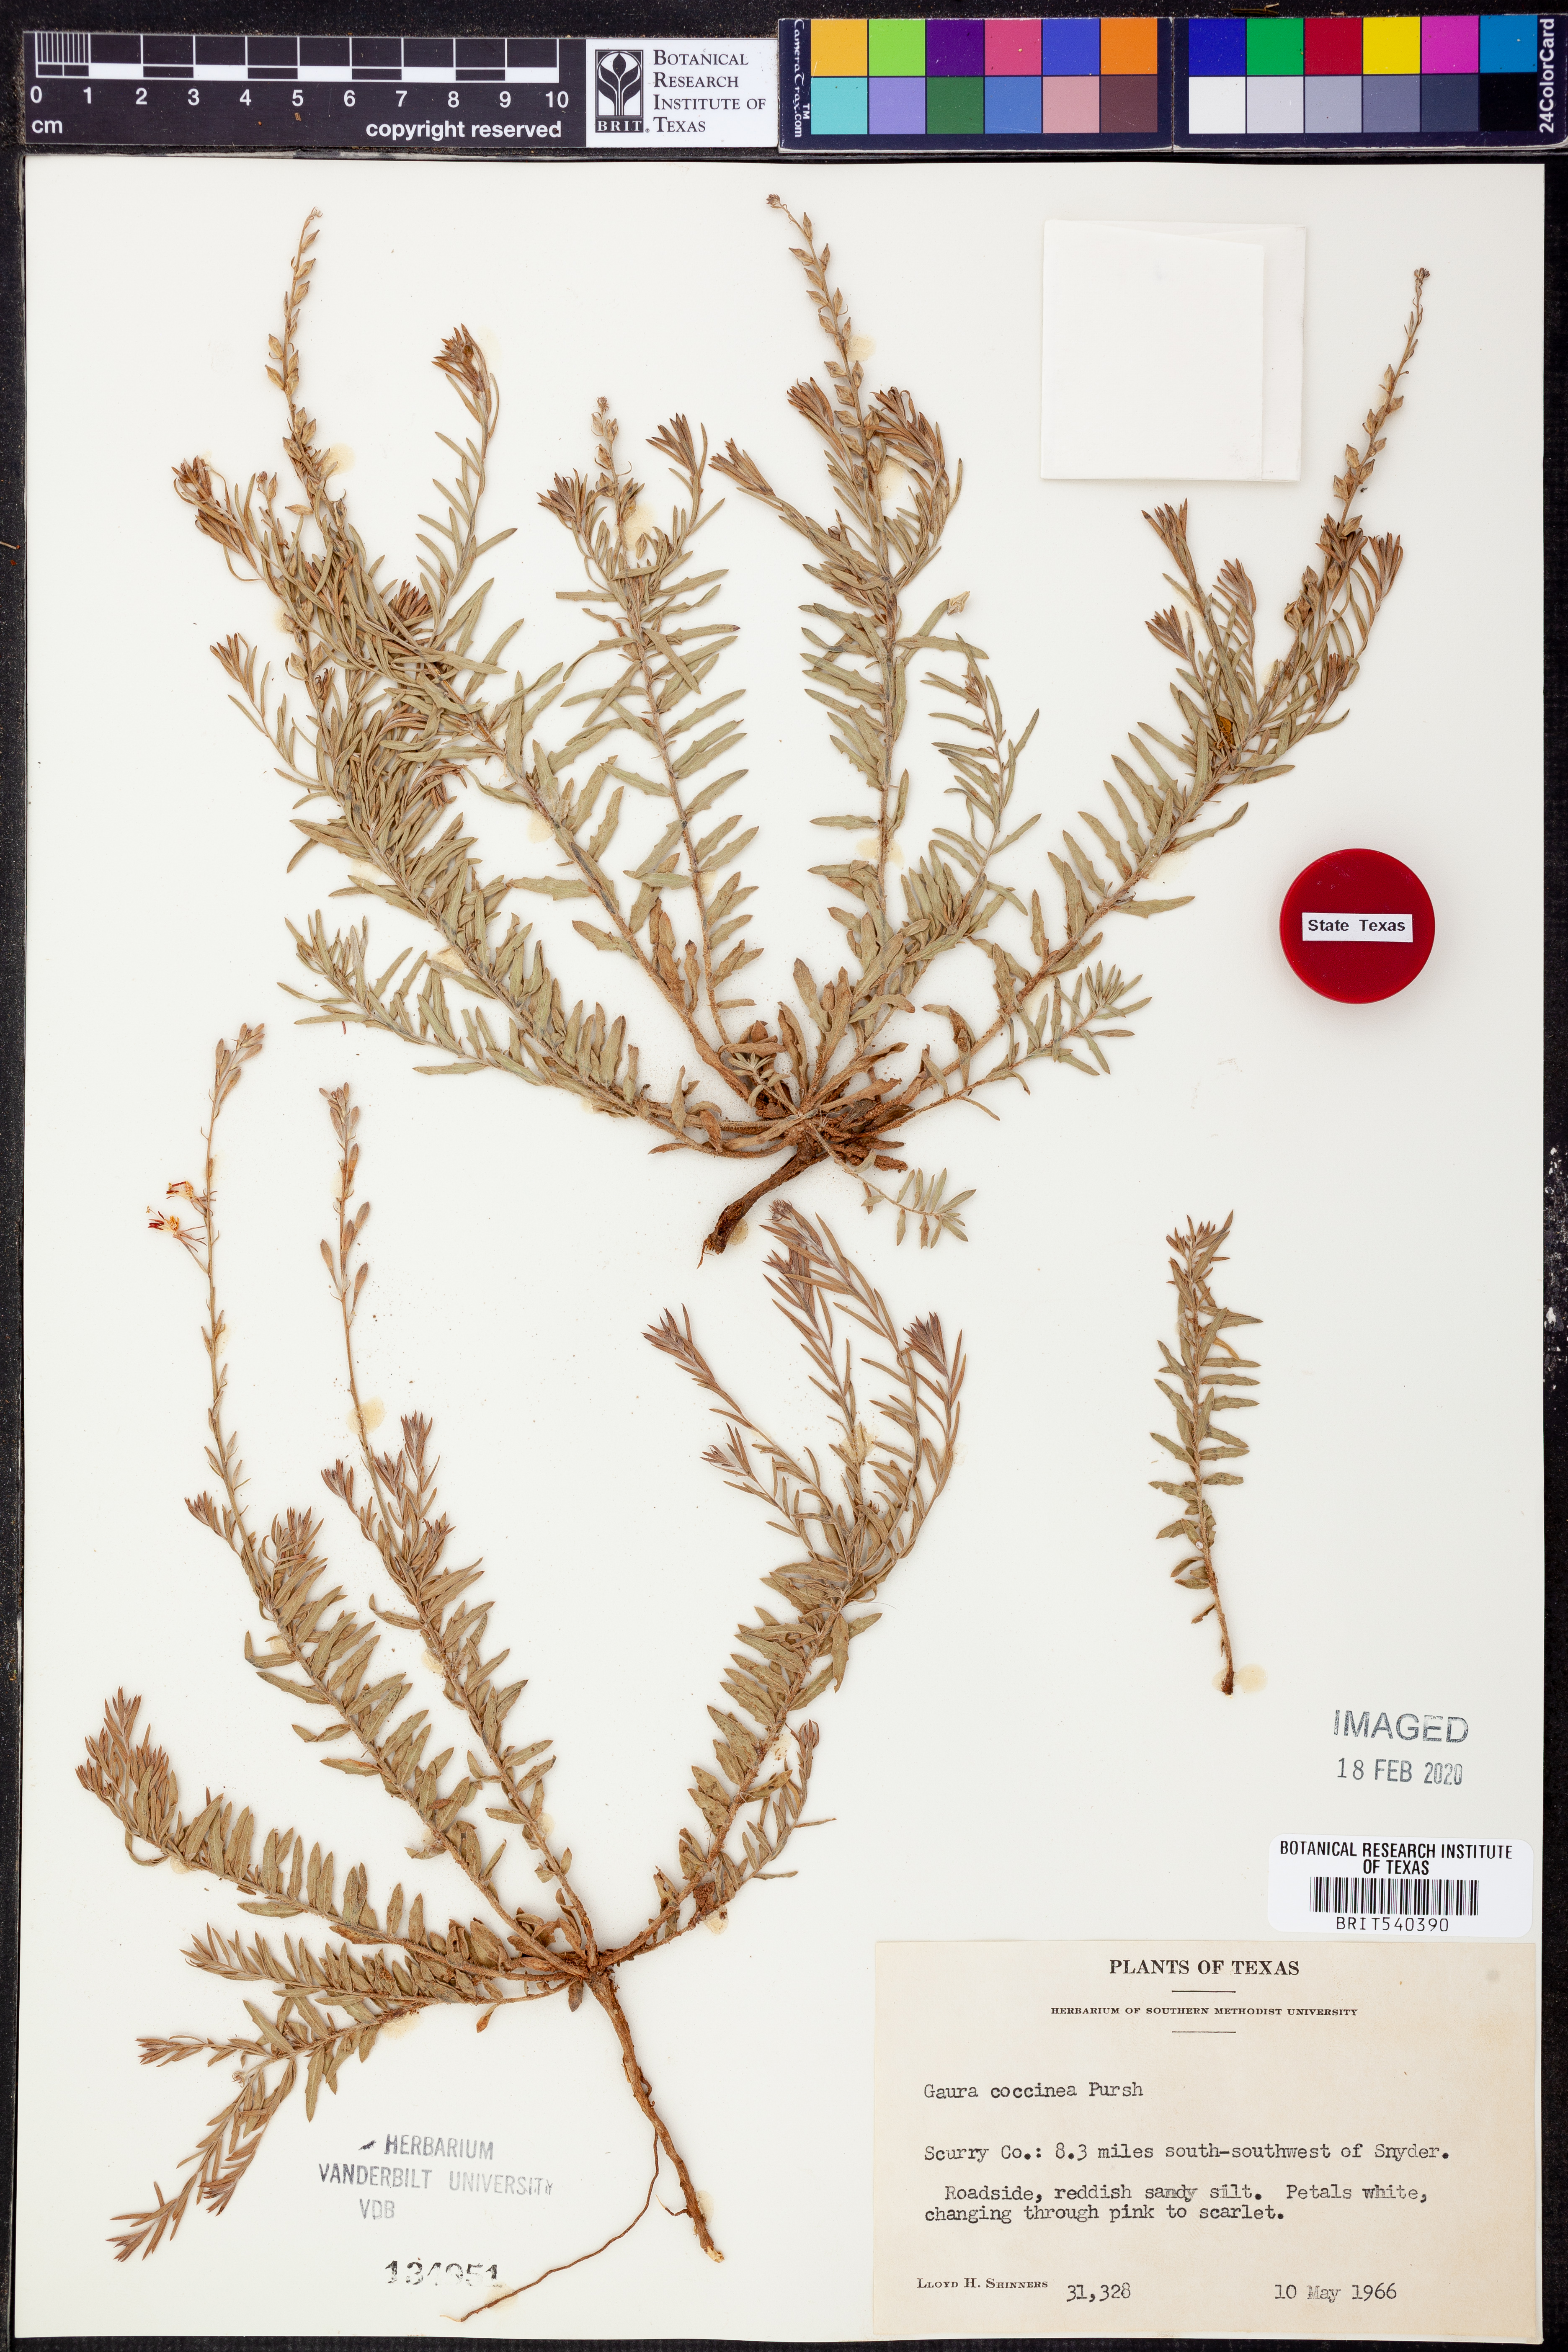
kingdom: Plantae
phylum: Tracheophyta
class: Magnoliopsida
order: Myrtales
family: Onagraceae
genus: Oenothera
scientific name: Oenothera suffrutescens
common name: Scarlet beeblossom
